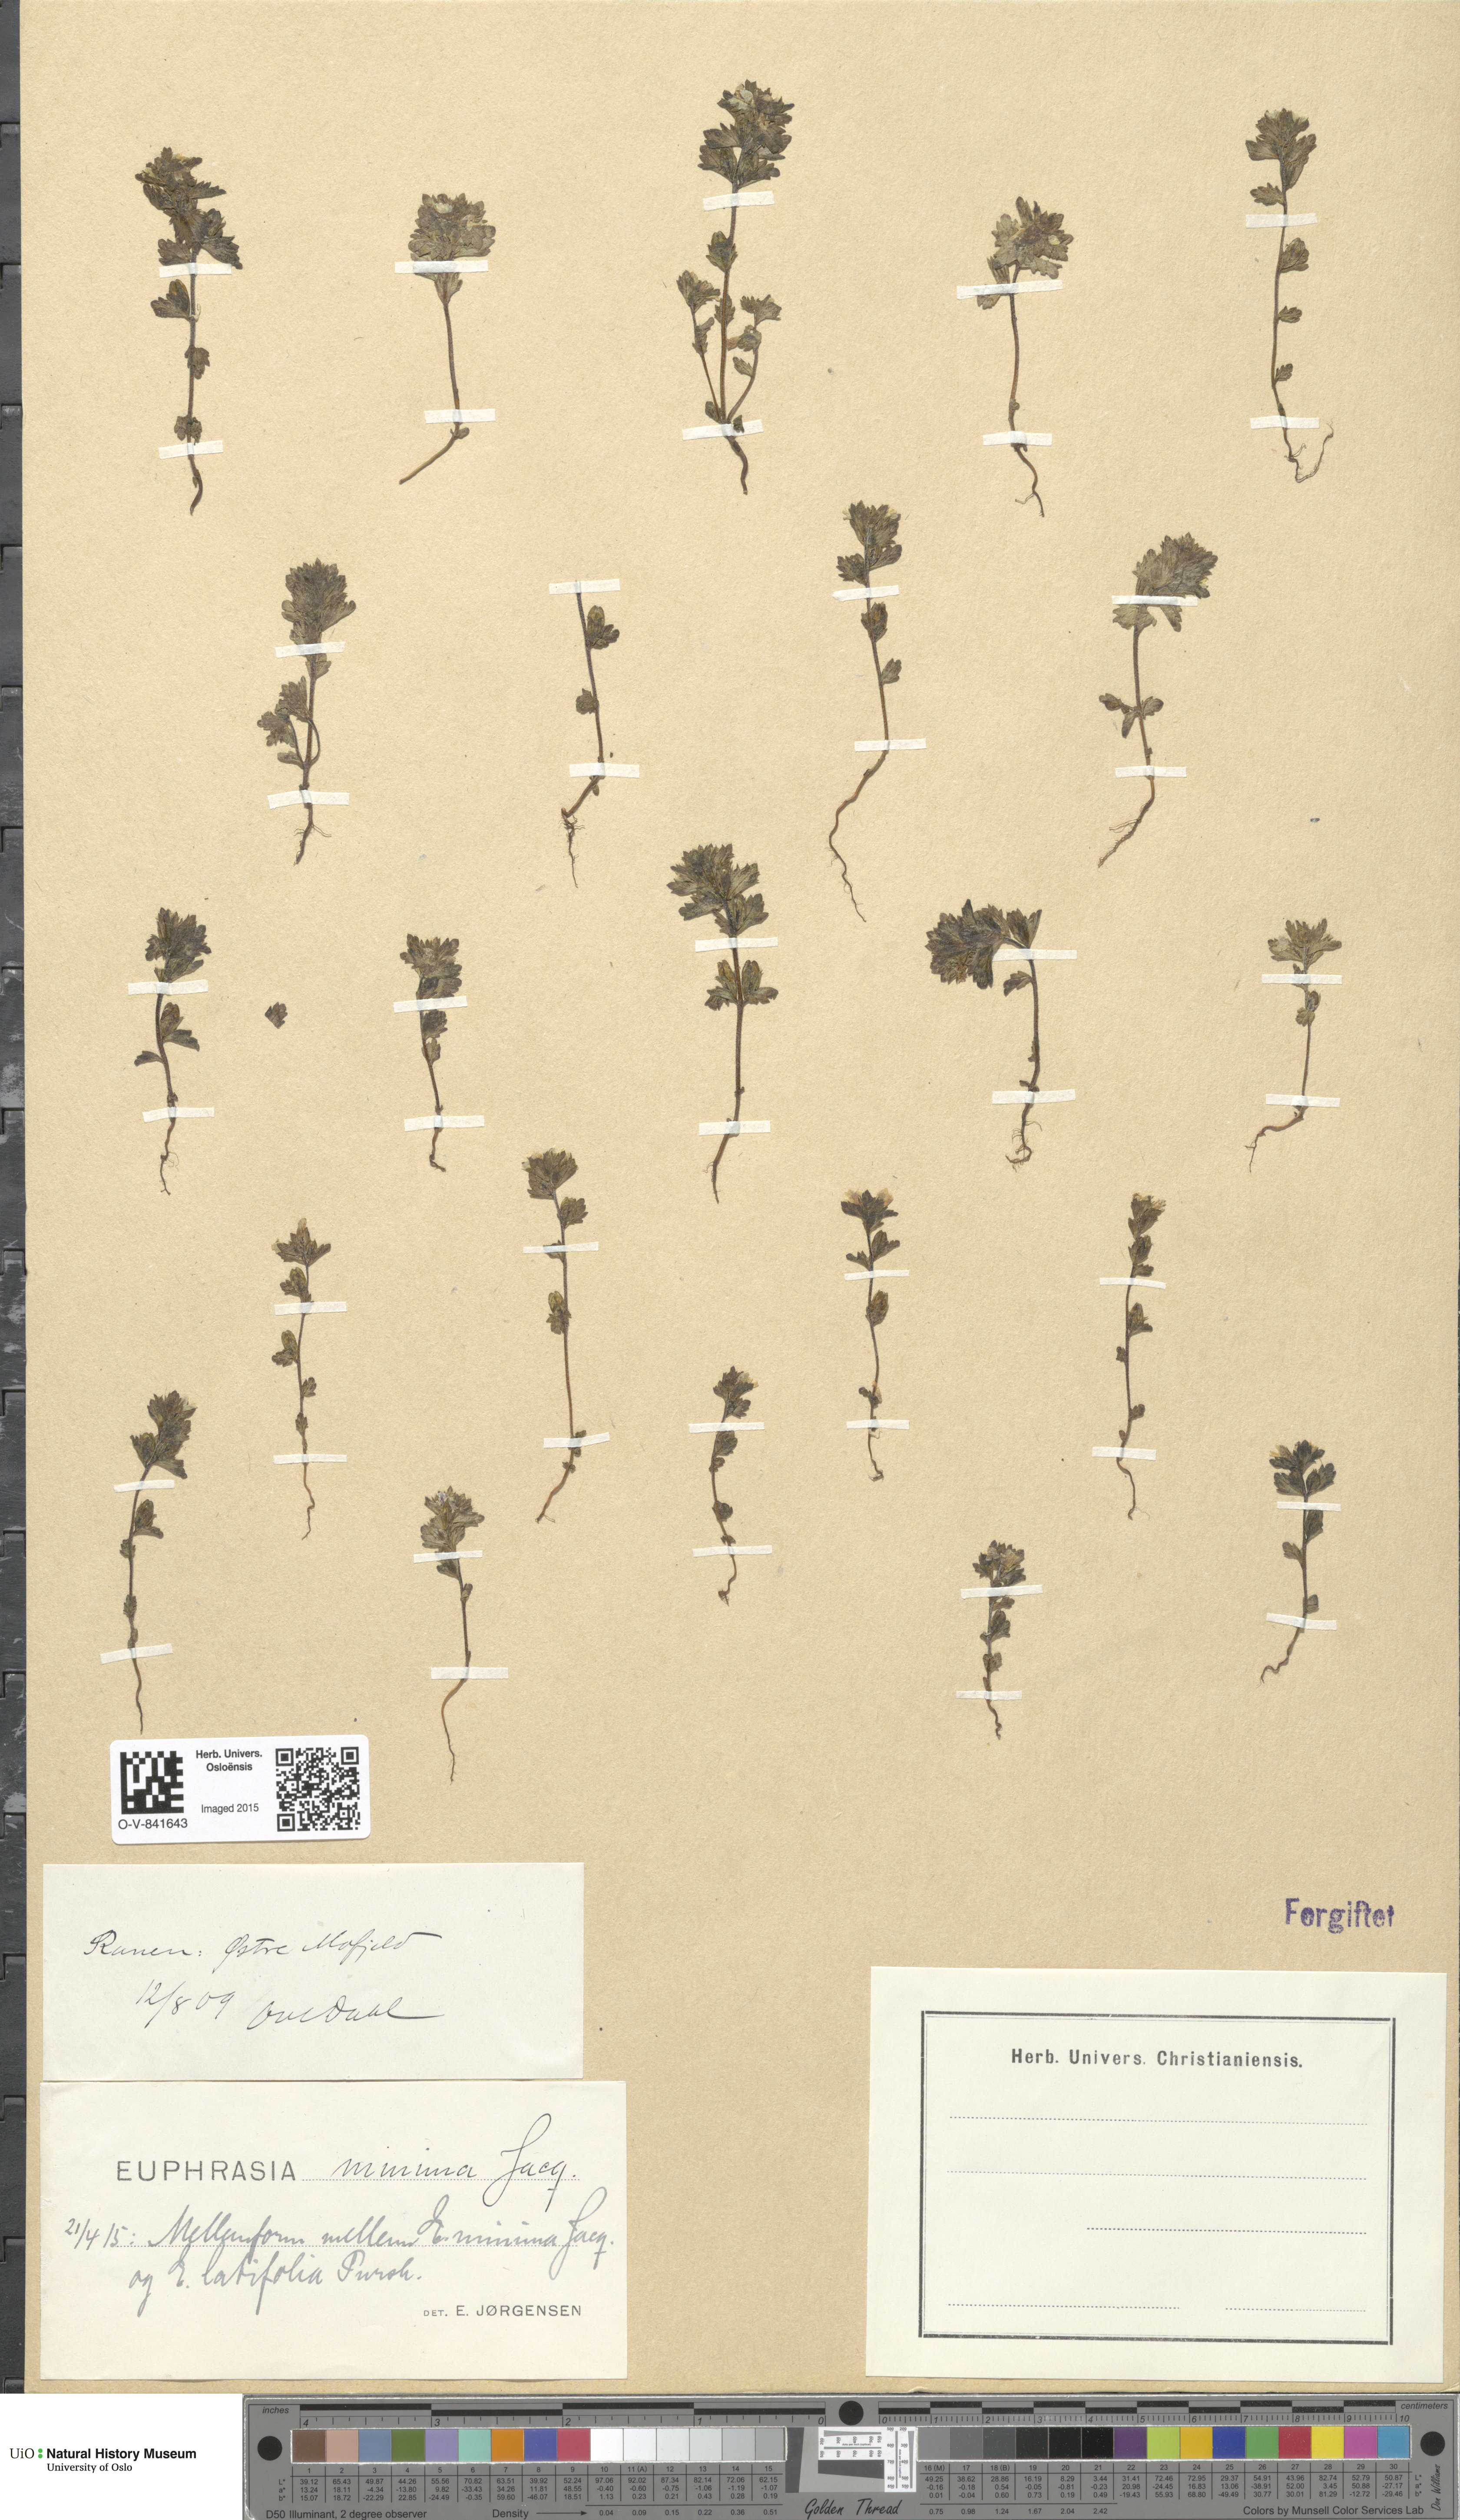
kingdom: Plantae
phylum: Tracheophyta
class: Magnoliopsida
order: Lamiales
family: Orobanchaceae
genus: Euphrasia
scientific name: Euphrasia wettsteinii
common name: Wettstein's eyebright
